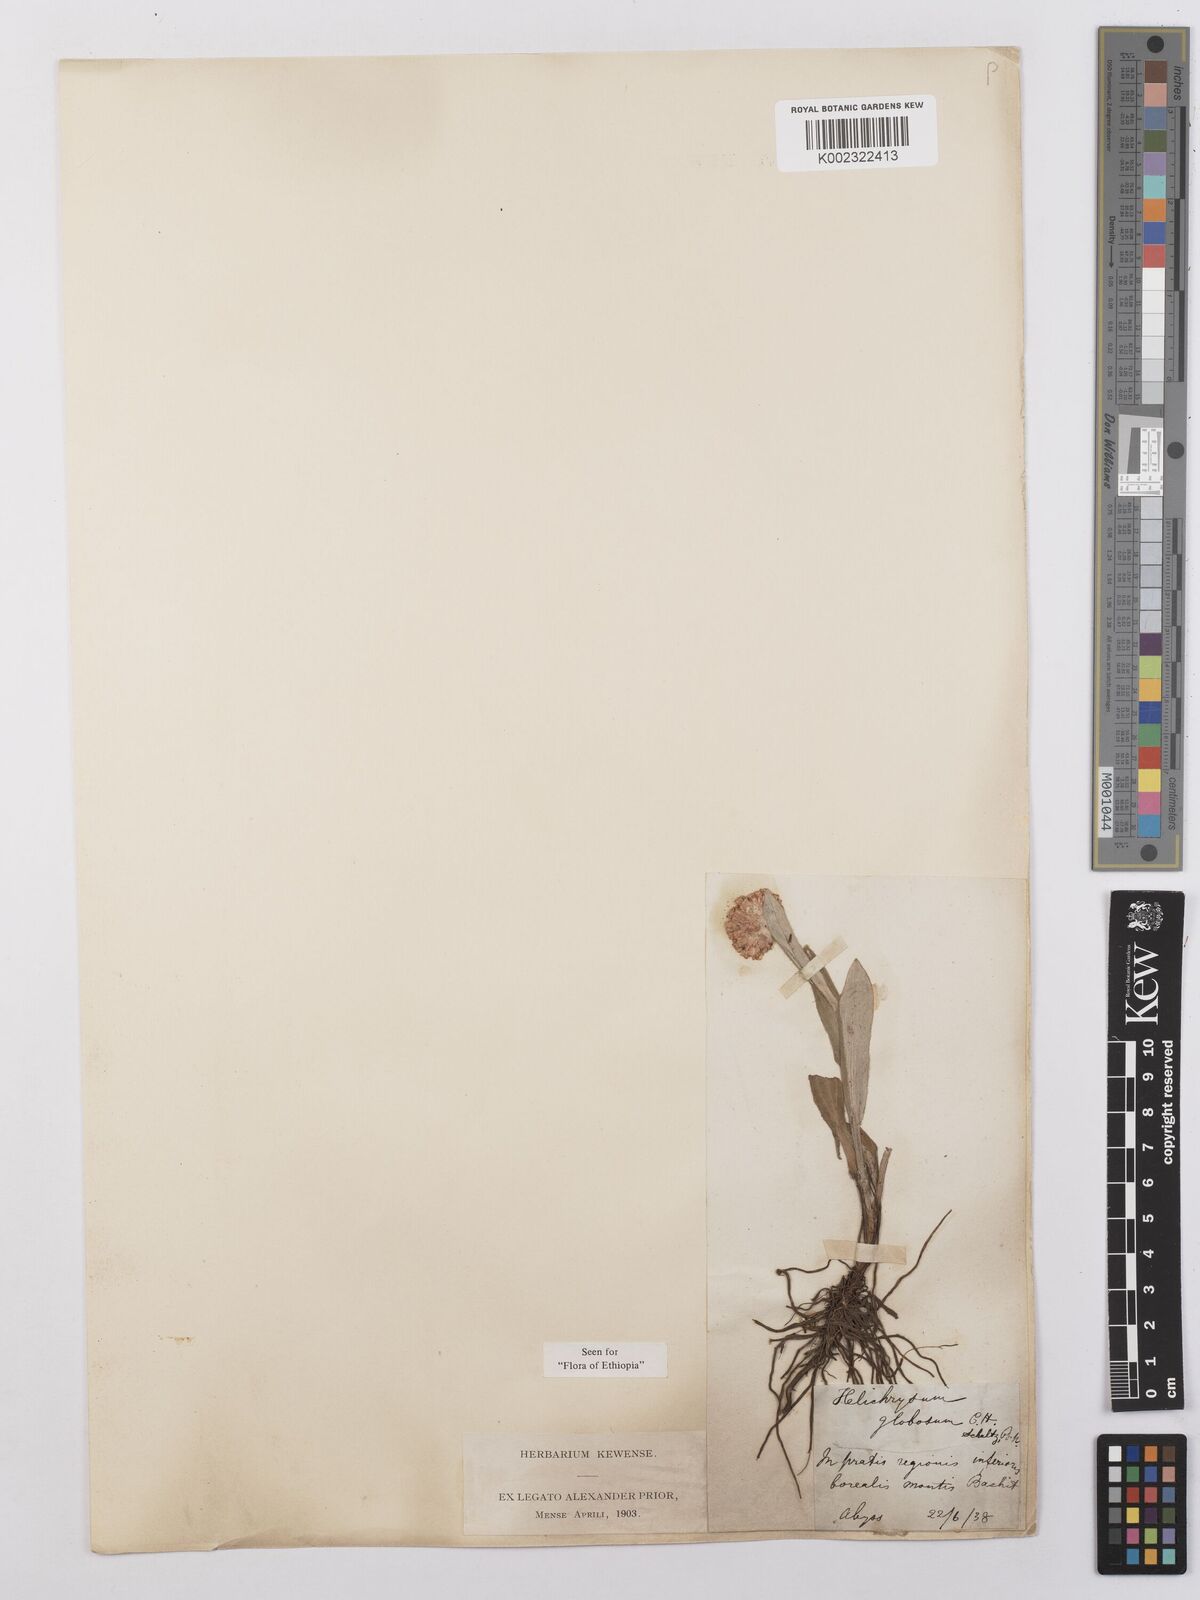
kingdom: Plantae
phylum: Tracheophyta
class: Magnoliopsida
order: Asterales
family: Asteraceae
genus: Helichrysum
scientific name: Helichrysum globosum
